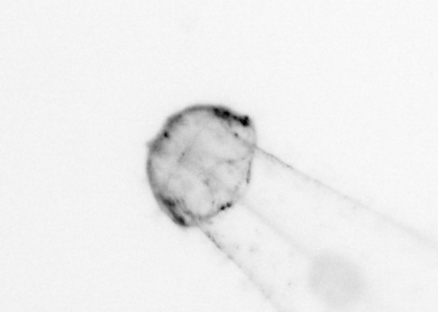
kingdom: Animalia
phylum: Chaetognatha
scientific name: Chaetognatha
